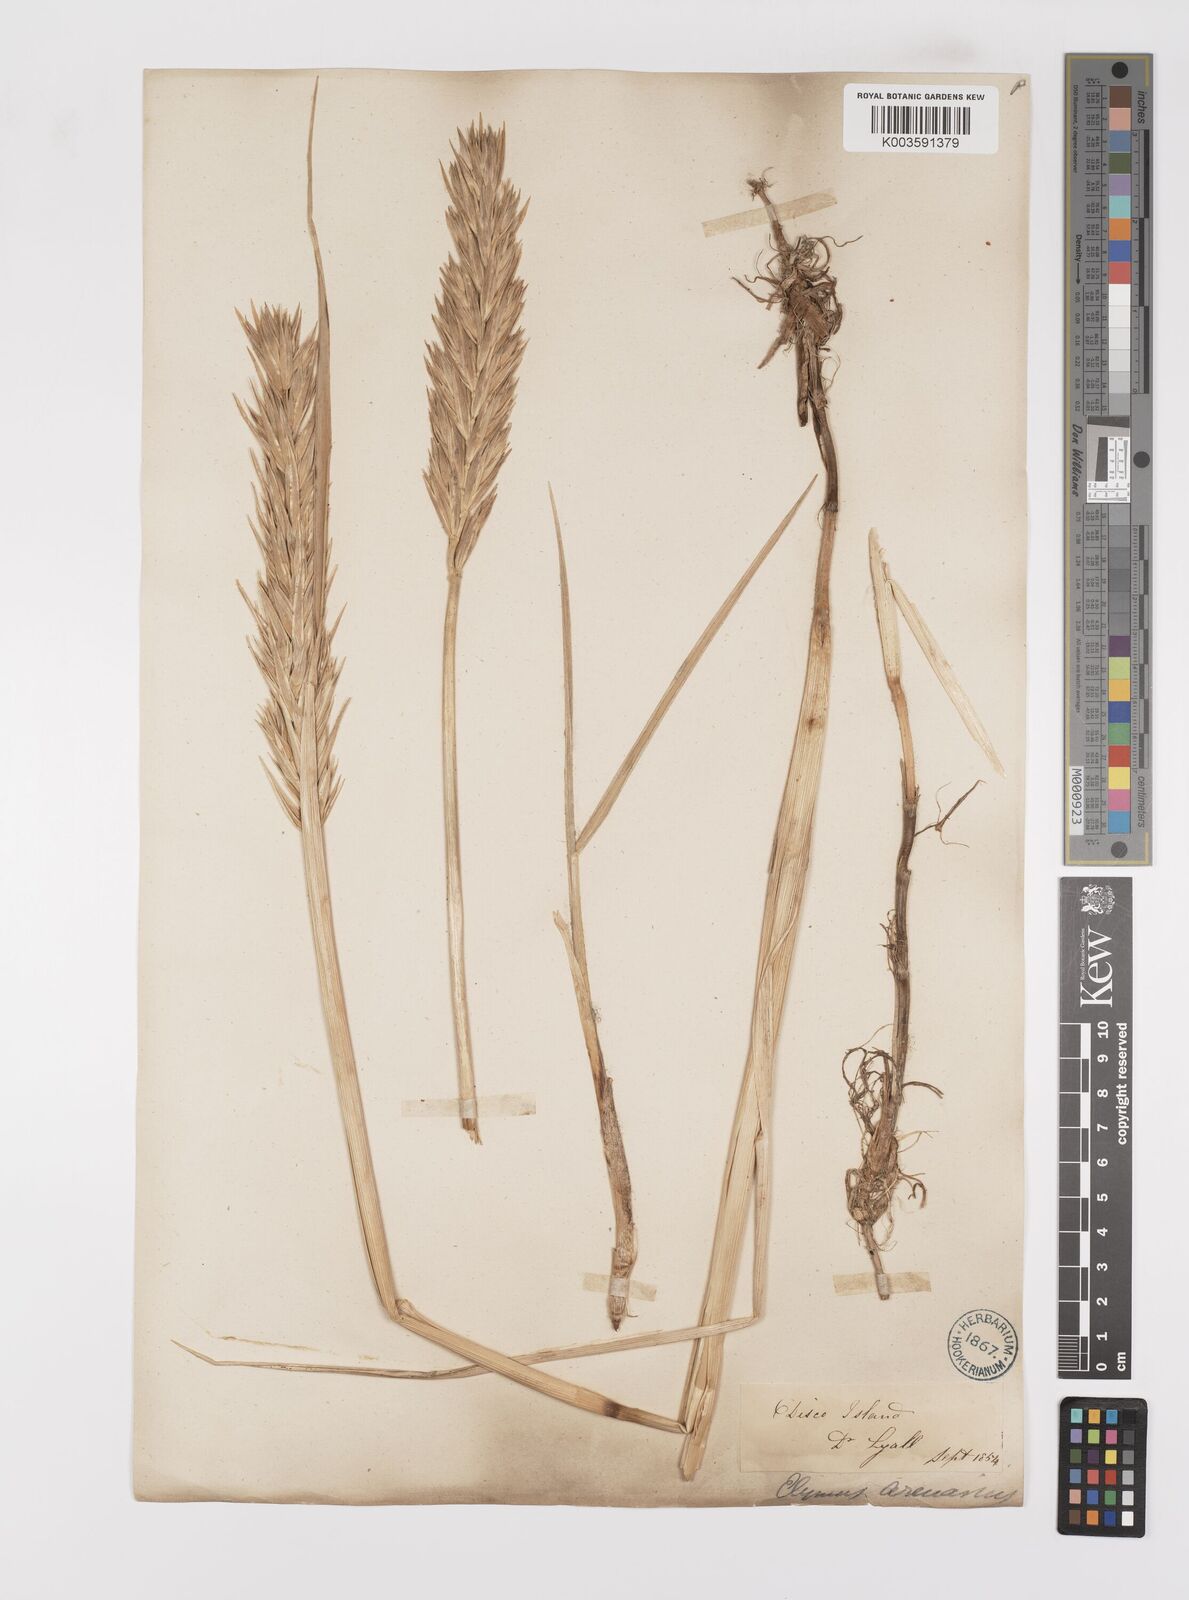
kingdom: Plantae
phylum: Tracheophyta
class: Liliopsida
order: Poales
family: Poaceae
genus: Leymus
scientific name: Leymus mollis
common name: American dune grass
